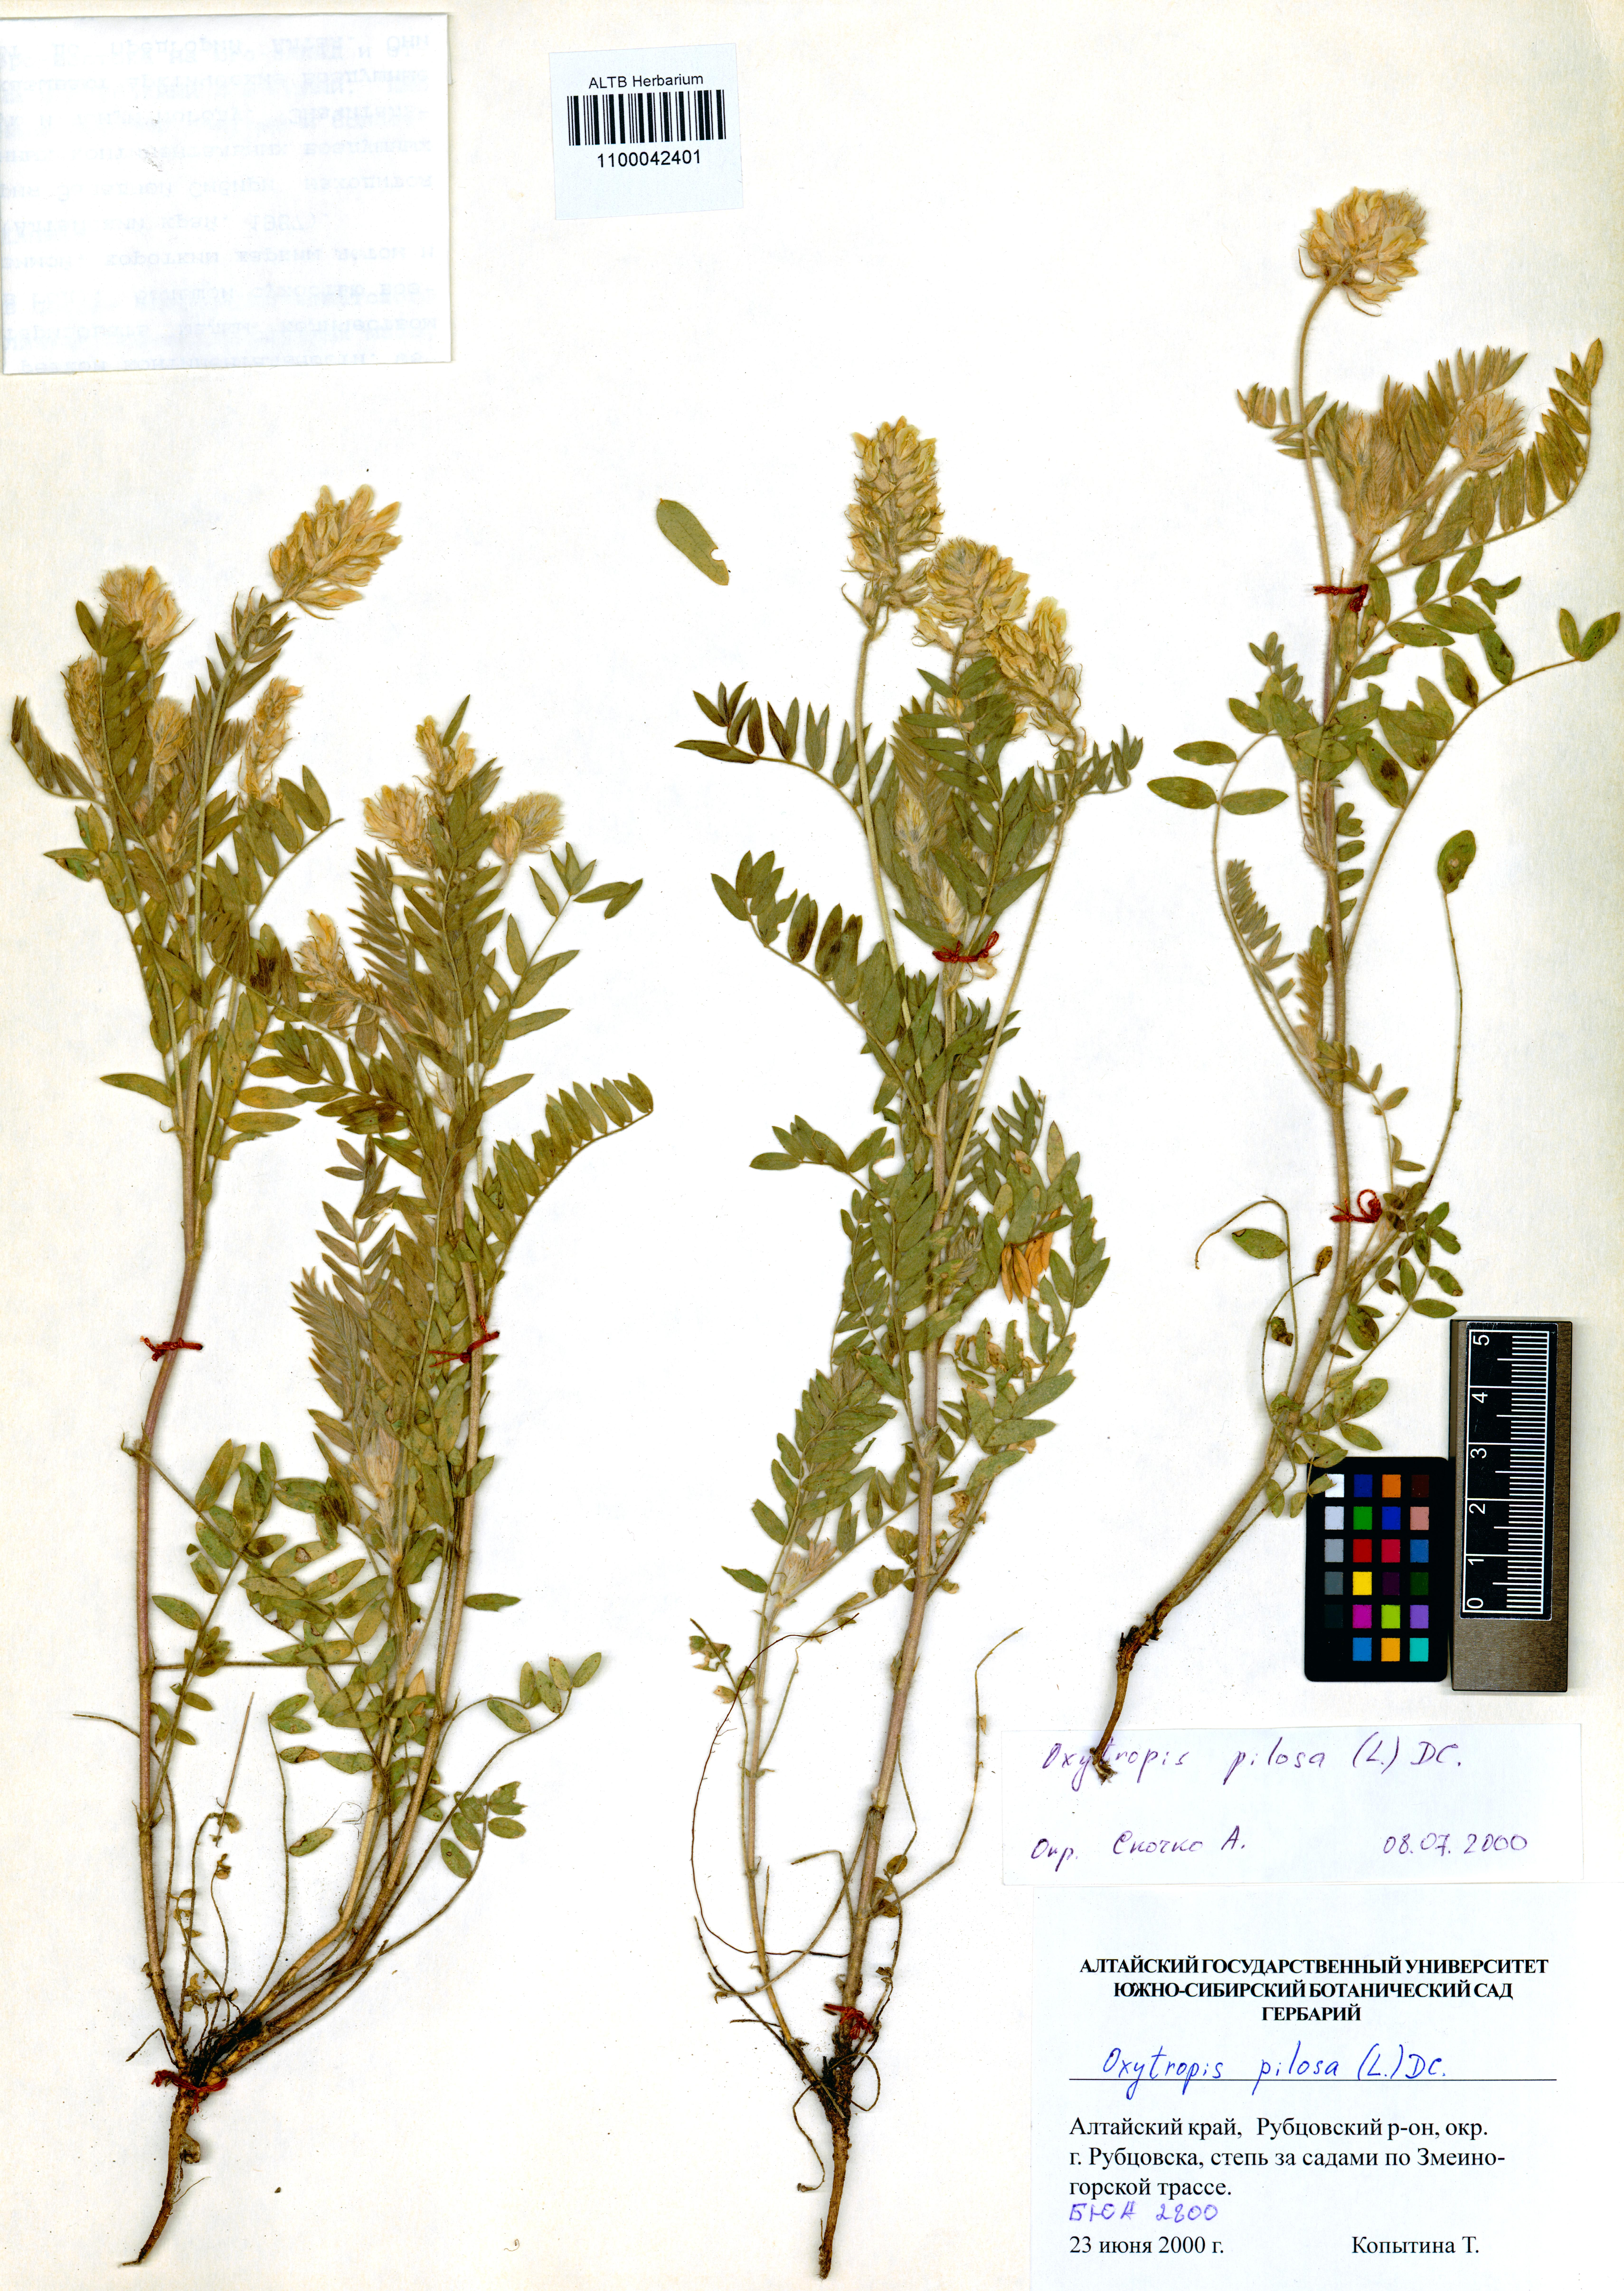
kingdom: Plantae
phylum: Tracheophyta
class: Magnoliopsida
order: Fabales
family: Fabaceae
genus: Oxytropis
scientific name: Oxytropis pilosa
